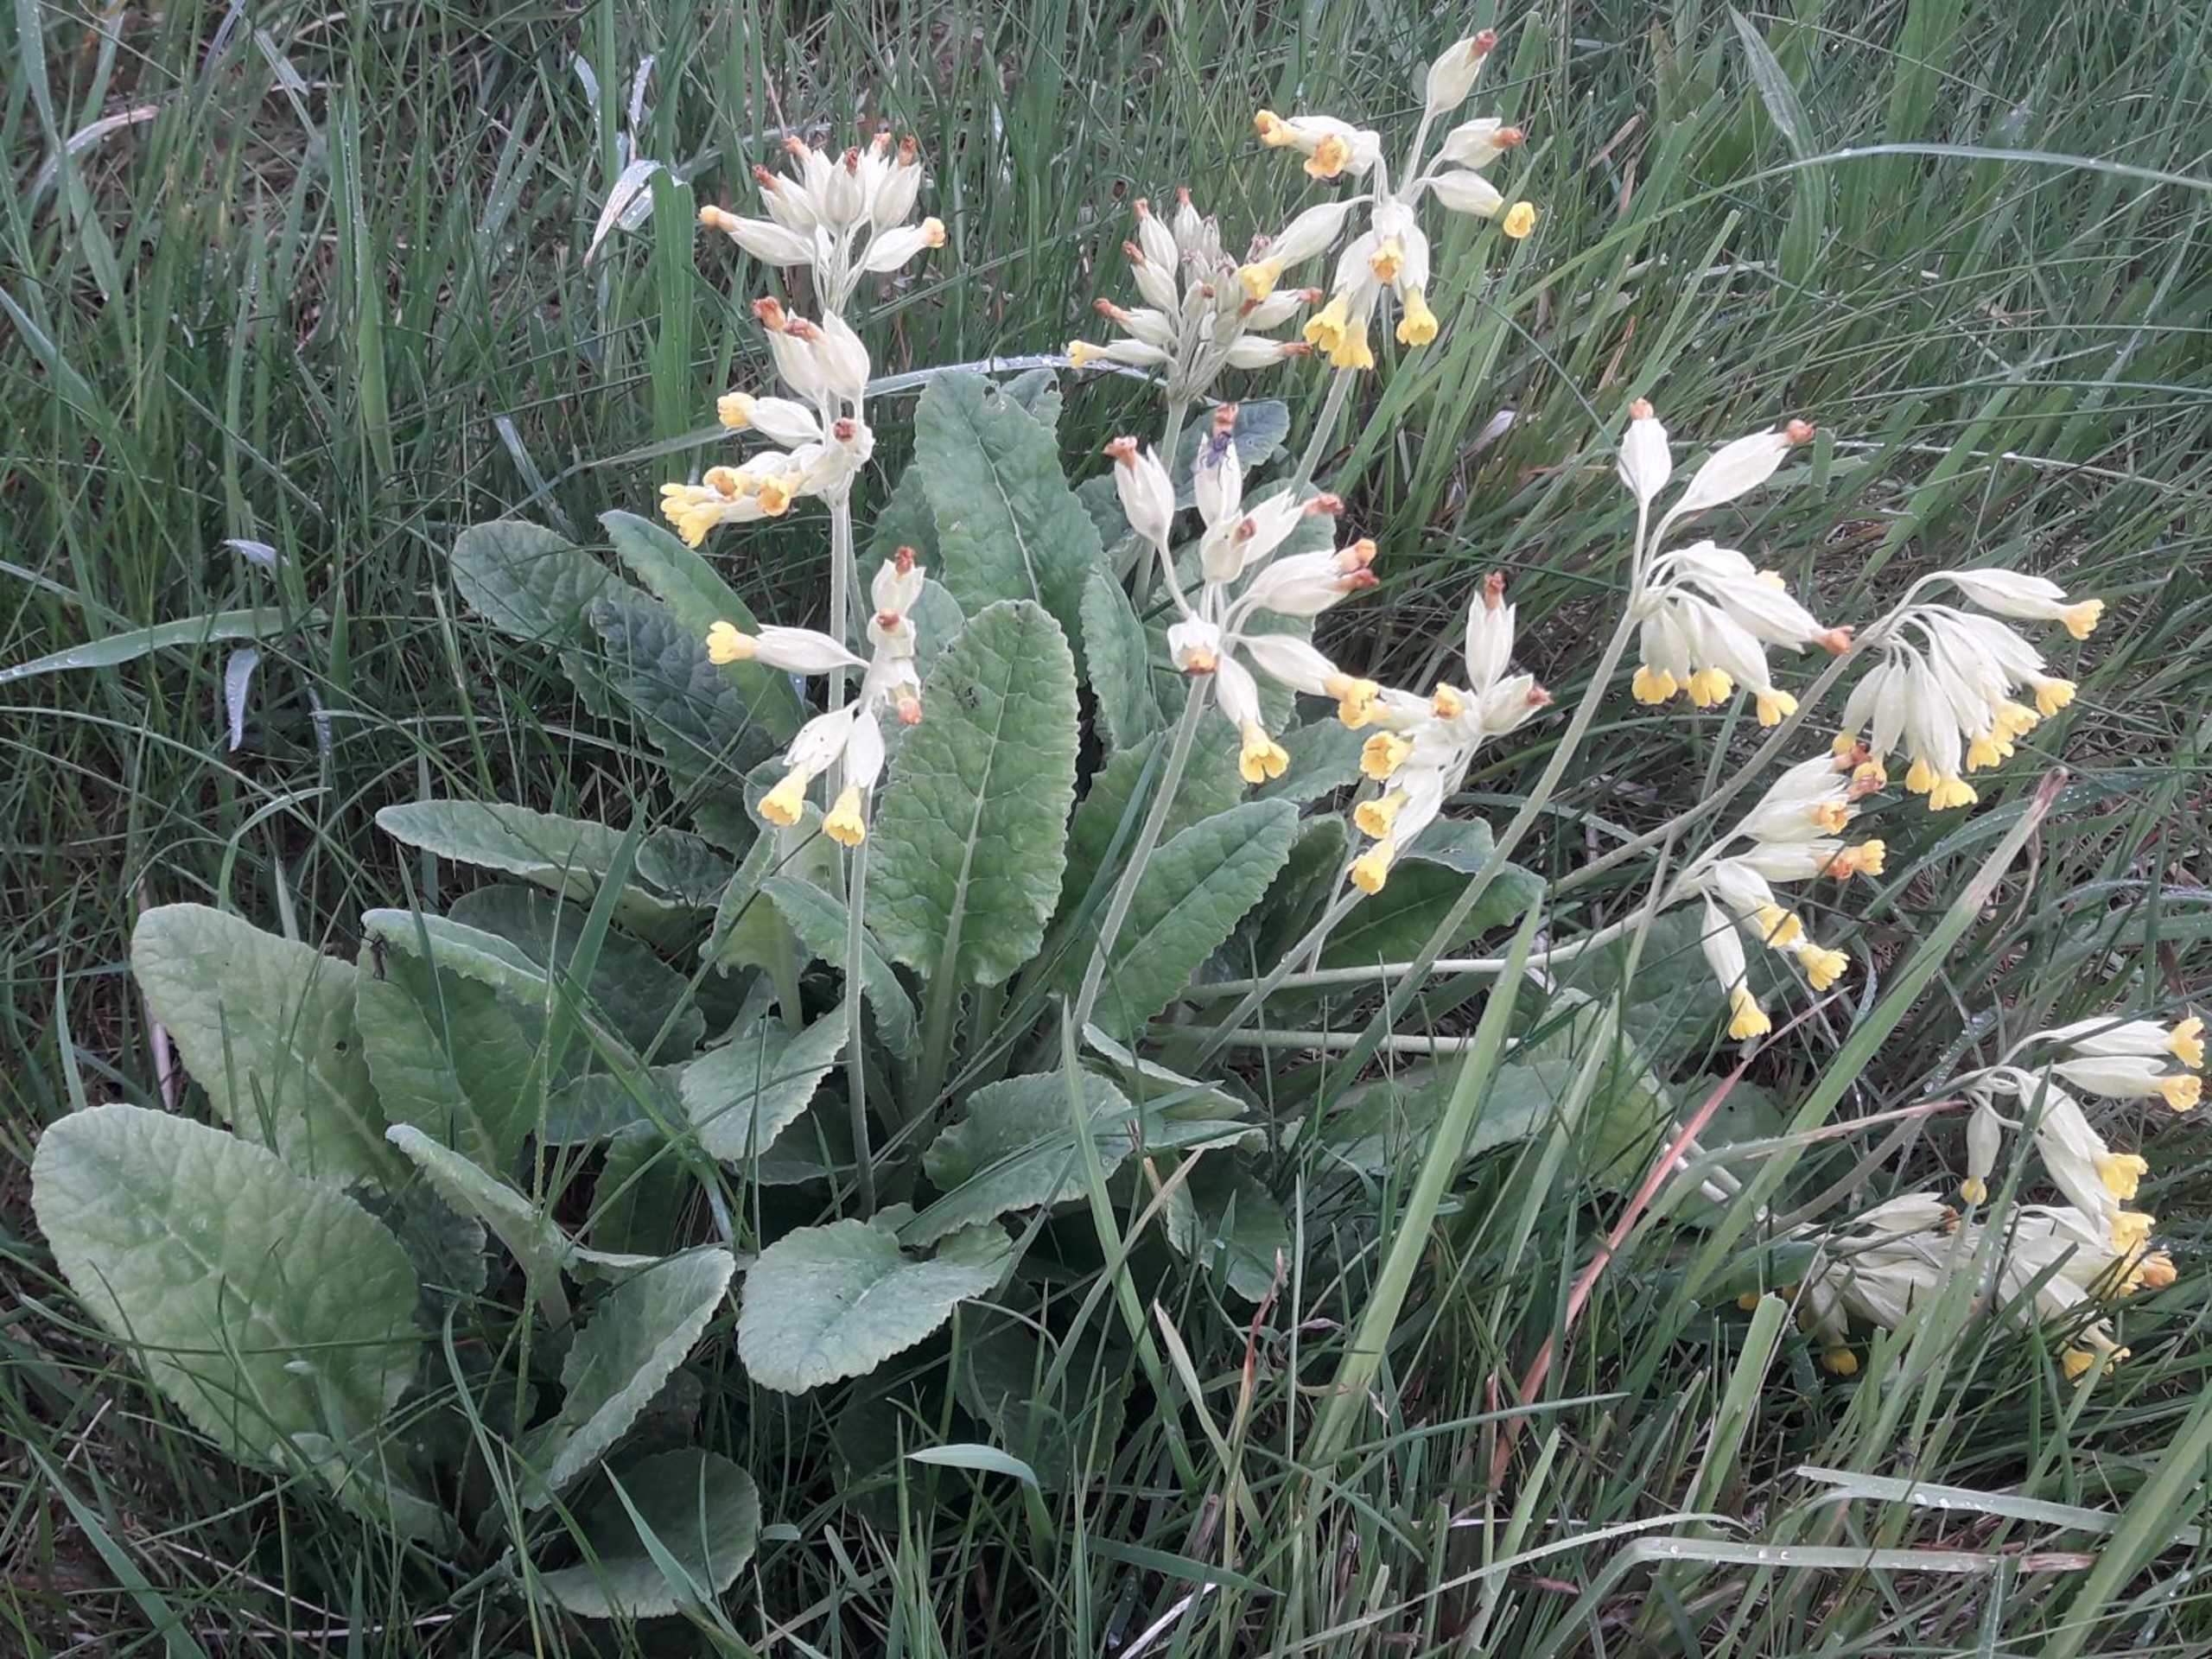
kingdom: Plantae
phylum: Tracheophyta
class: Magnoliopsida
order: Ericales
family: Primulaceae
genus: Primula
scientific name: Primula veris
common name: Hulkravet kodriver
